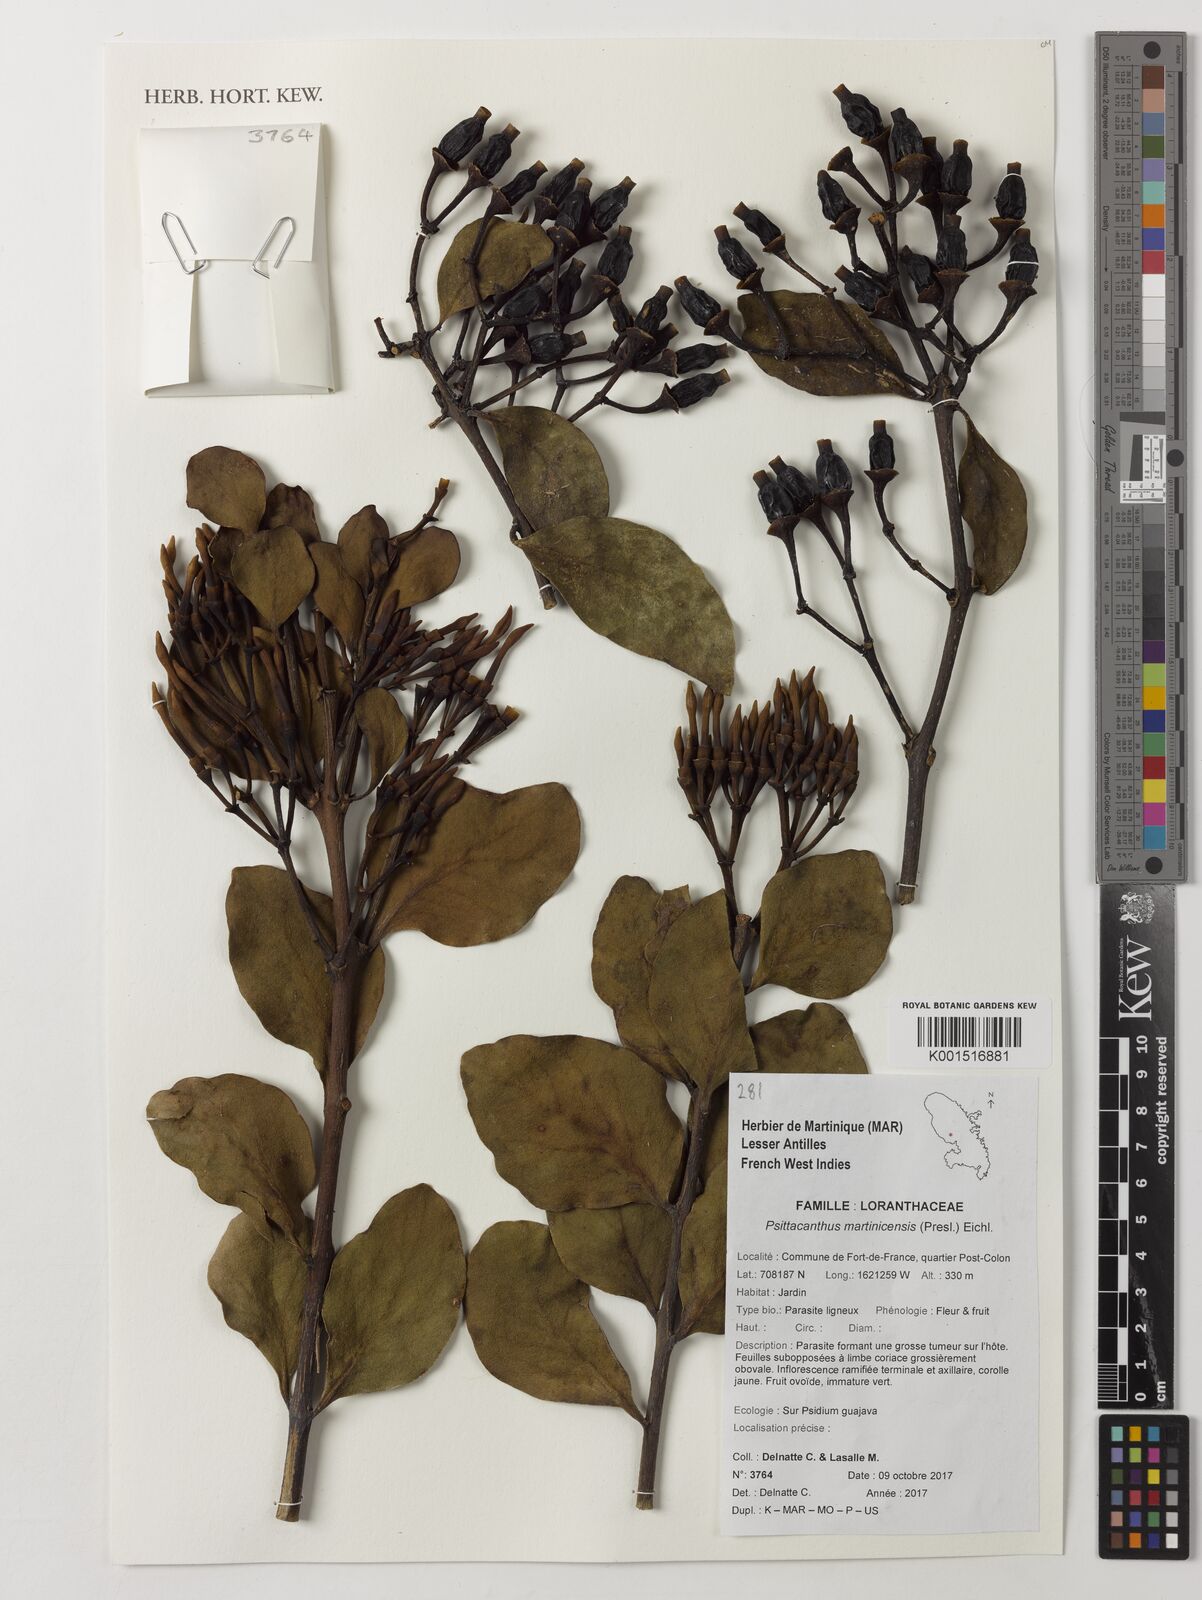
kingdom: Plantae
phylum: Tracheophyta
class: Magnoliopsida
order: Santalales
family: Loranthaceae
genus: Psittacanthus
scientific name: Psittacanthus martinicensis
